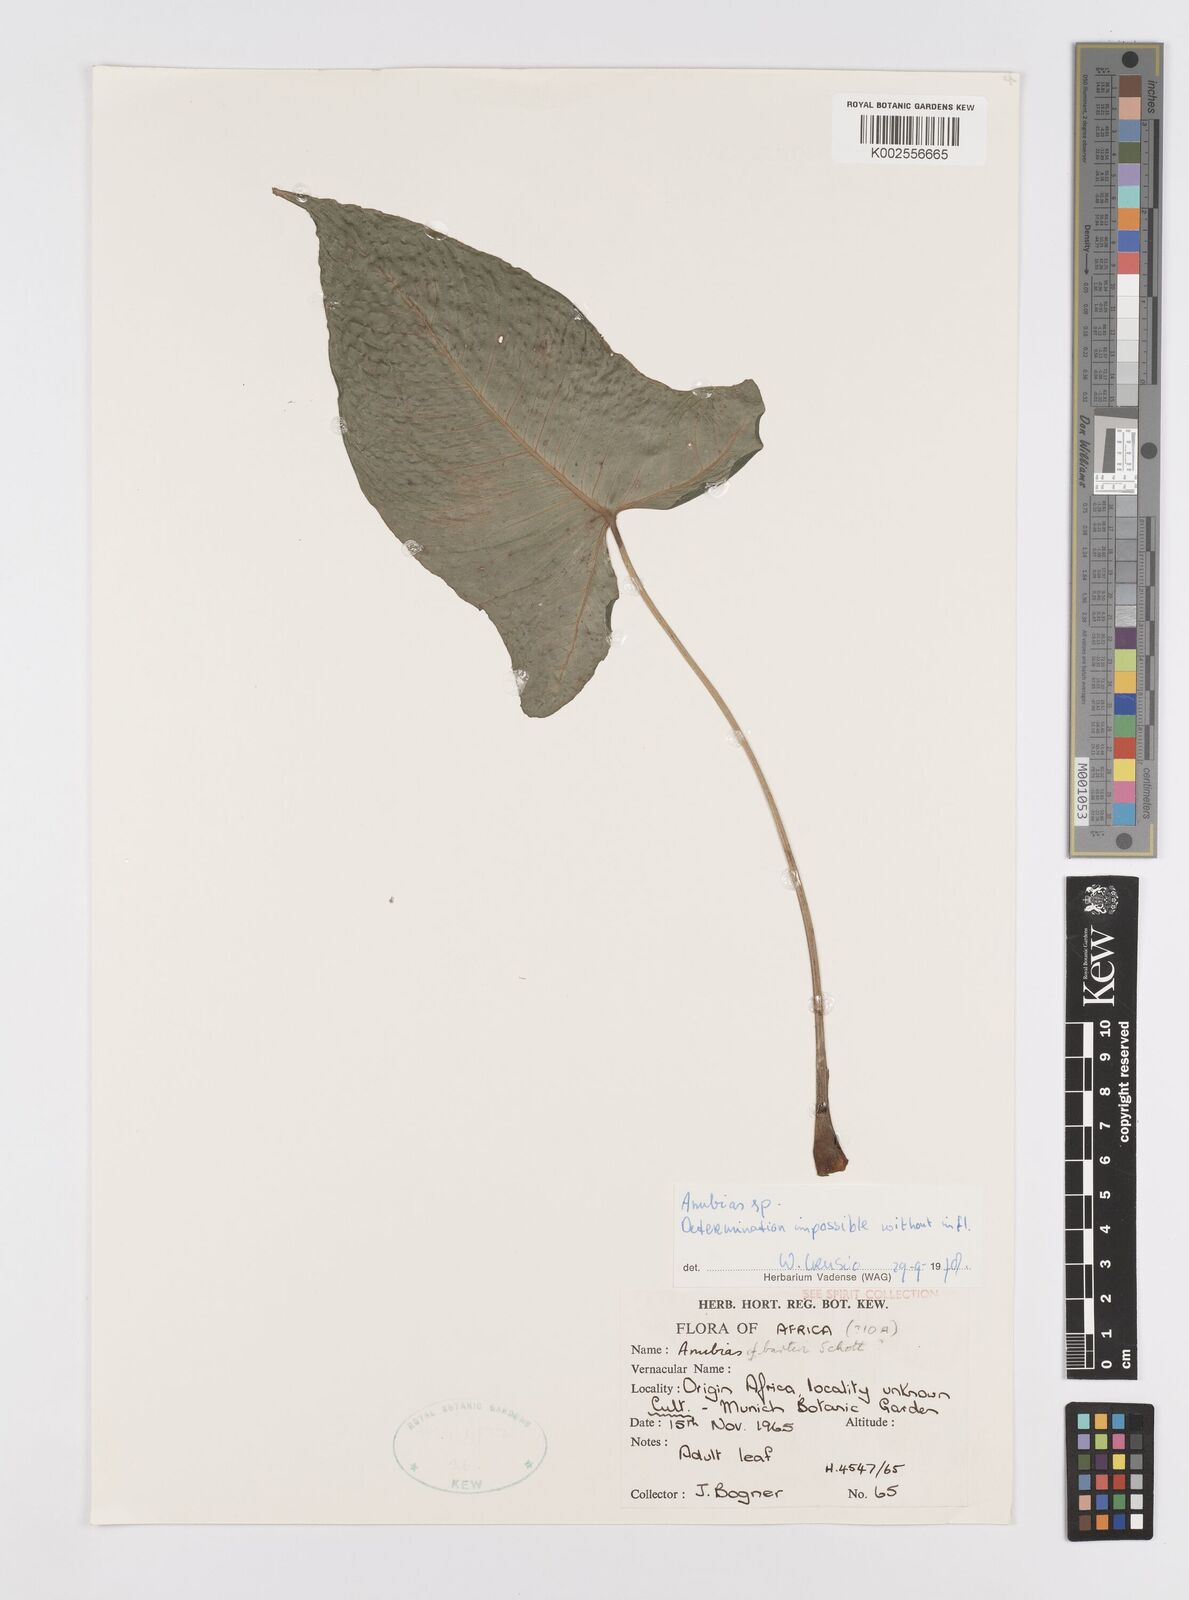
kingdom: Plantae
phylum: Tracheophyta
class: Liliopsida
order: Alismatales
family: Araceae
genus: Anubias
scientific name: Anubias
